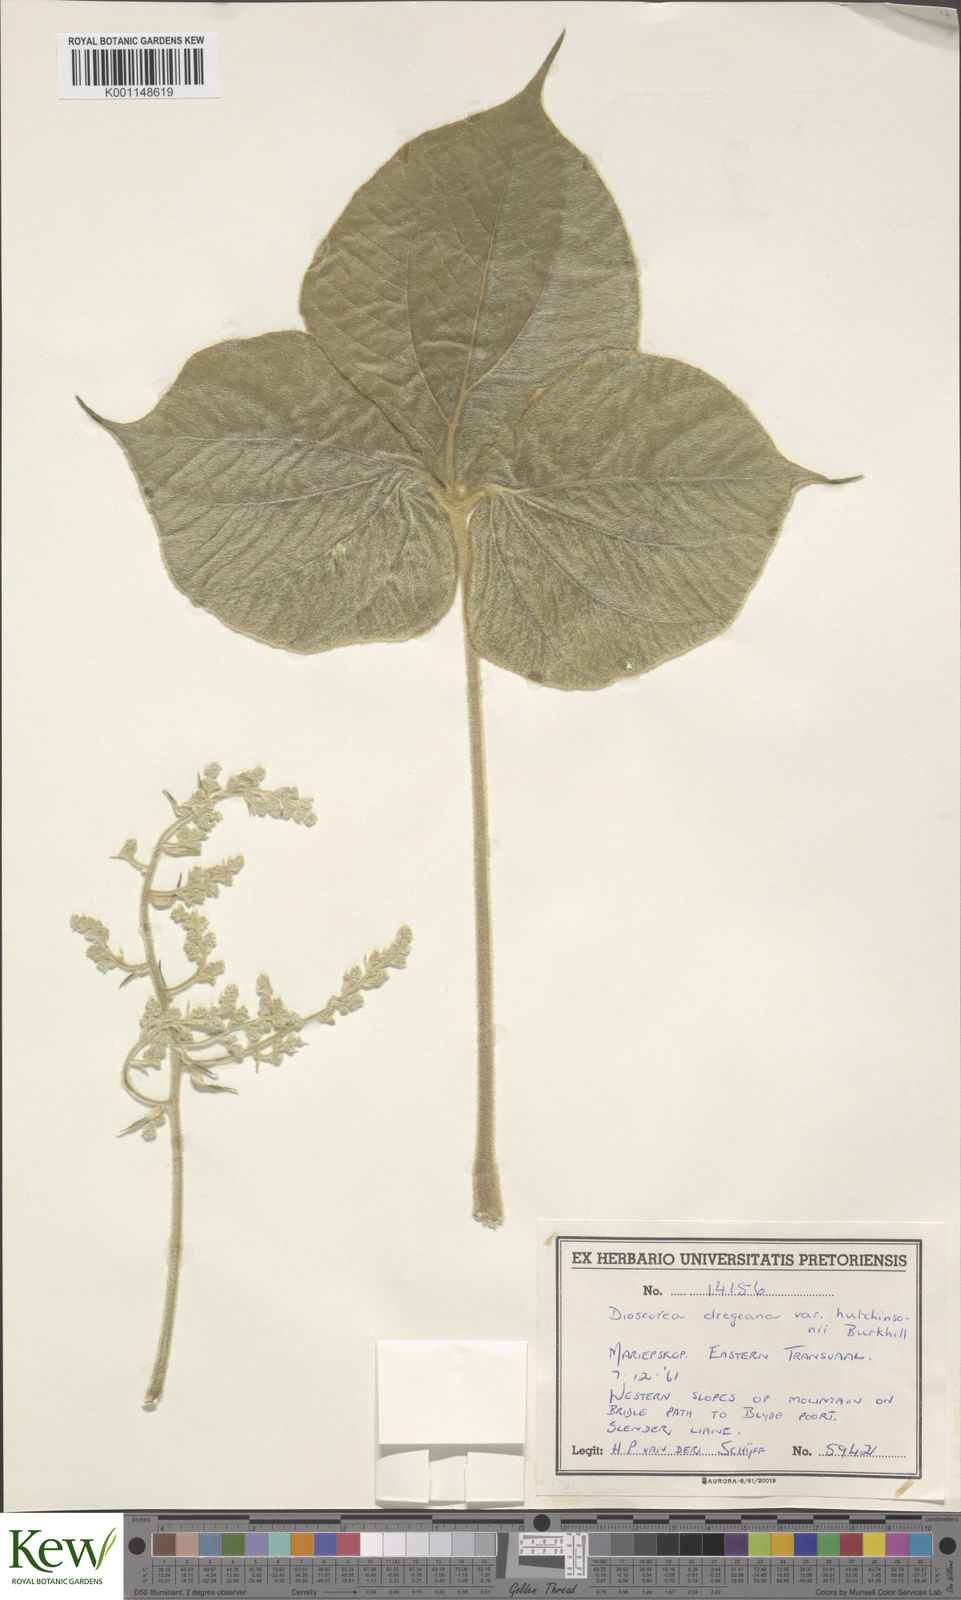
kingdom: Plantae
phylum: Tracheophyta
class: Liliopsida
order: Dioscoreales
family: Dioscoreaceae
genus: Dioscorea
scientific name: Dioscorea dregeana
